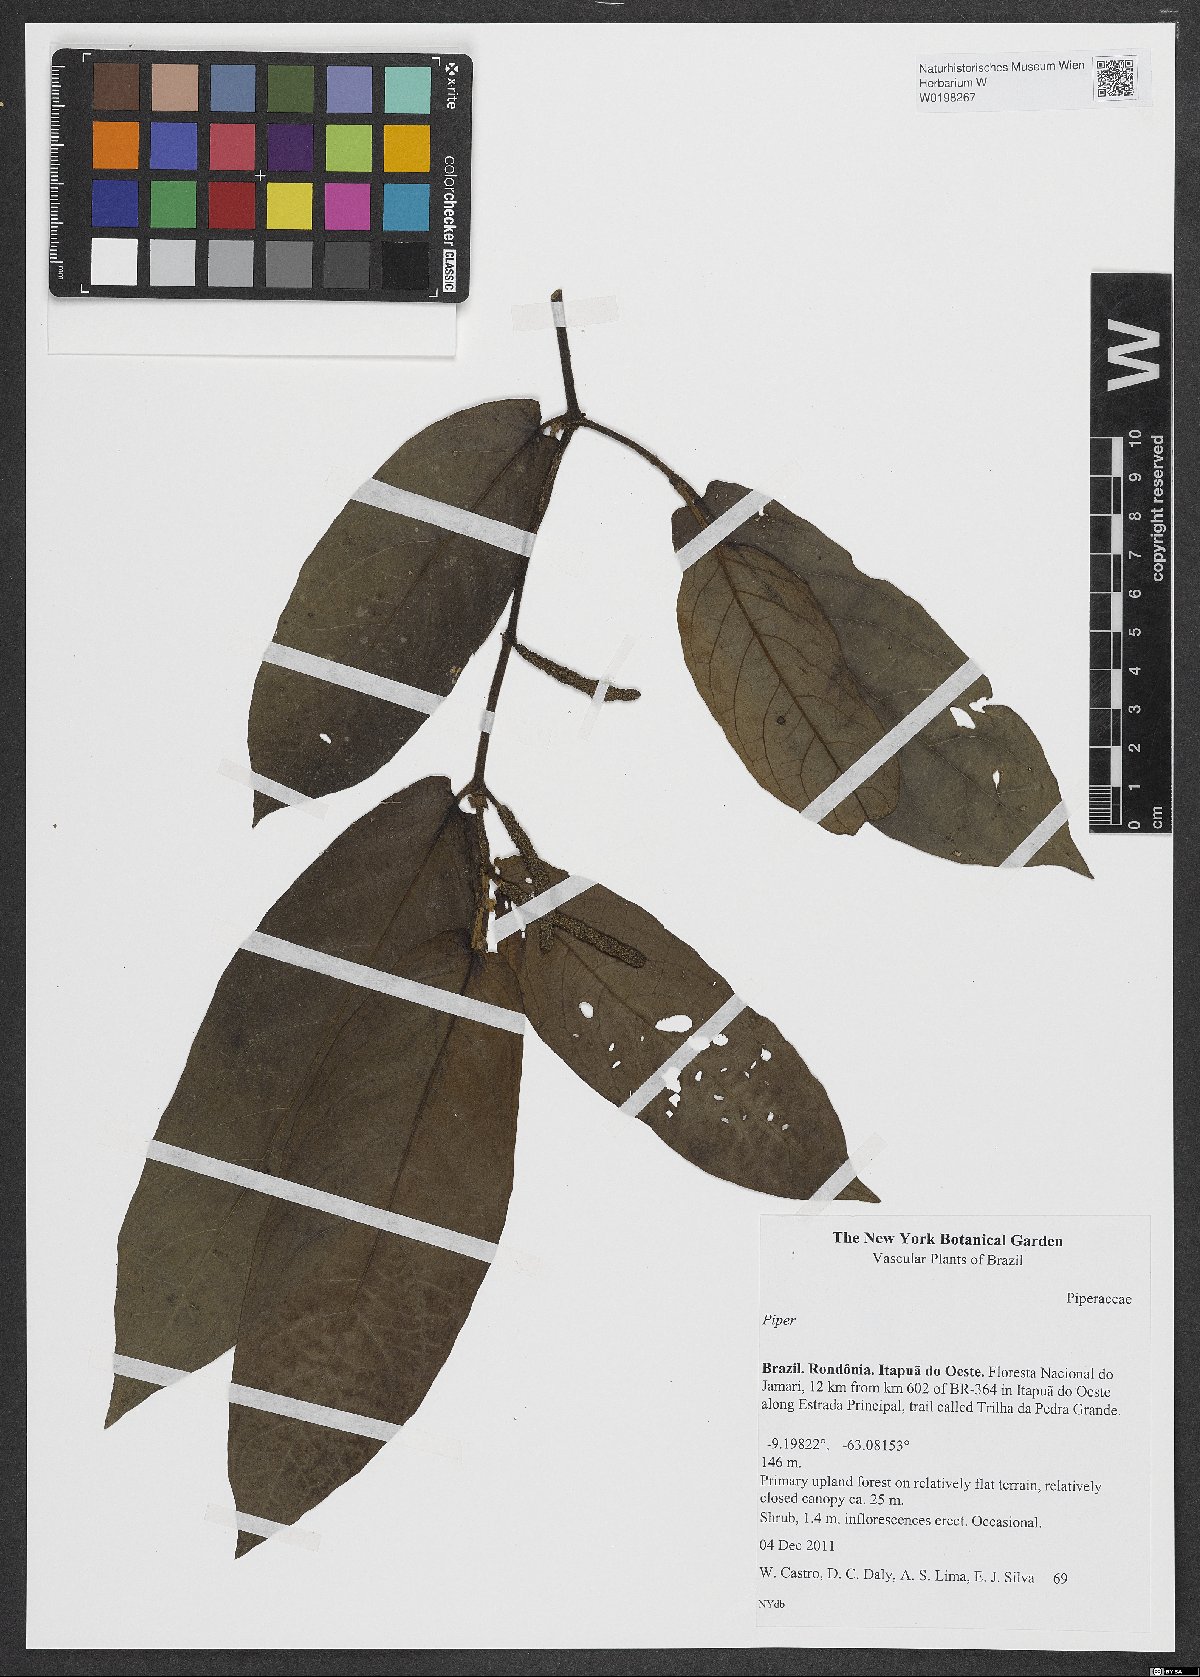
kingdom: Plantae
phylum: Tracheophyta
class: Magnoliopsida
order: Piperales
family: Piperaceae
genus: Piper
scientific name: Piper
